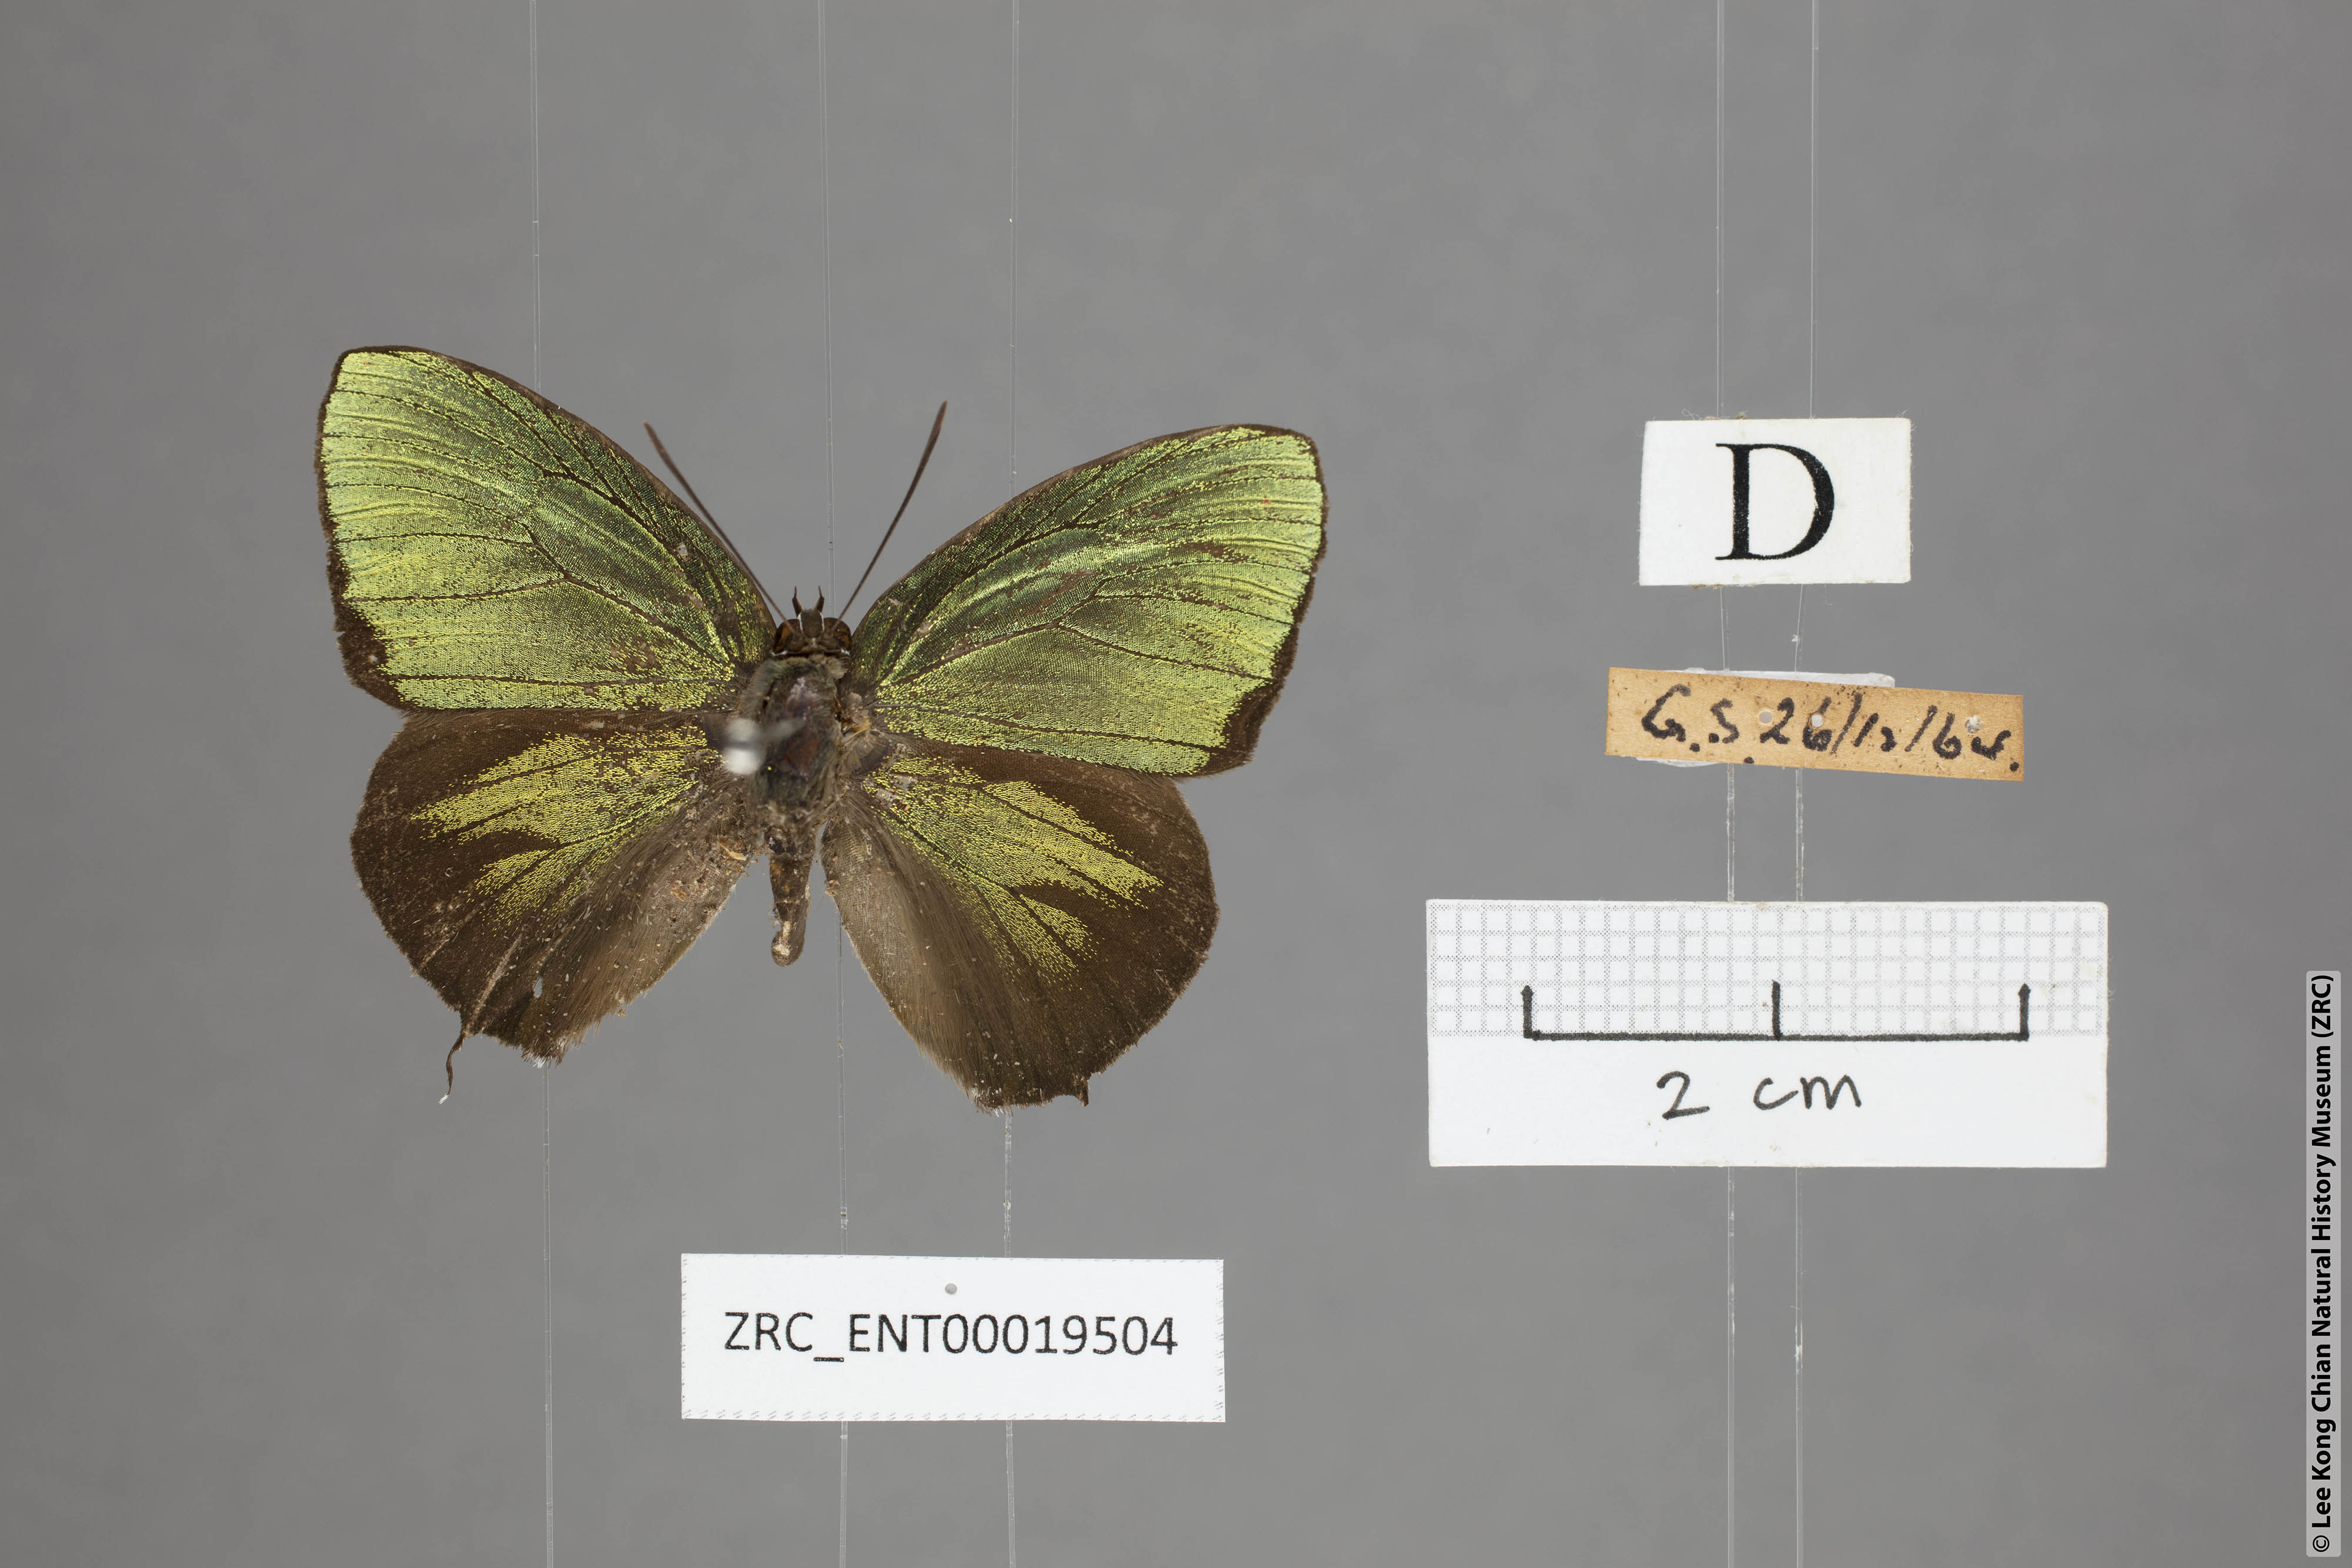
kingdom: Animalia
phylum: Arthropoda
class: Insecta
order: Lepidoptera
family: Lycaenidae
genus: Arhopala
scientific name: Arhopala hellenore
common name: Doherty's green oakblue
